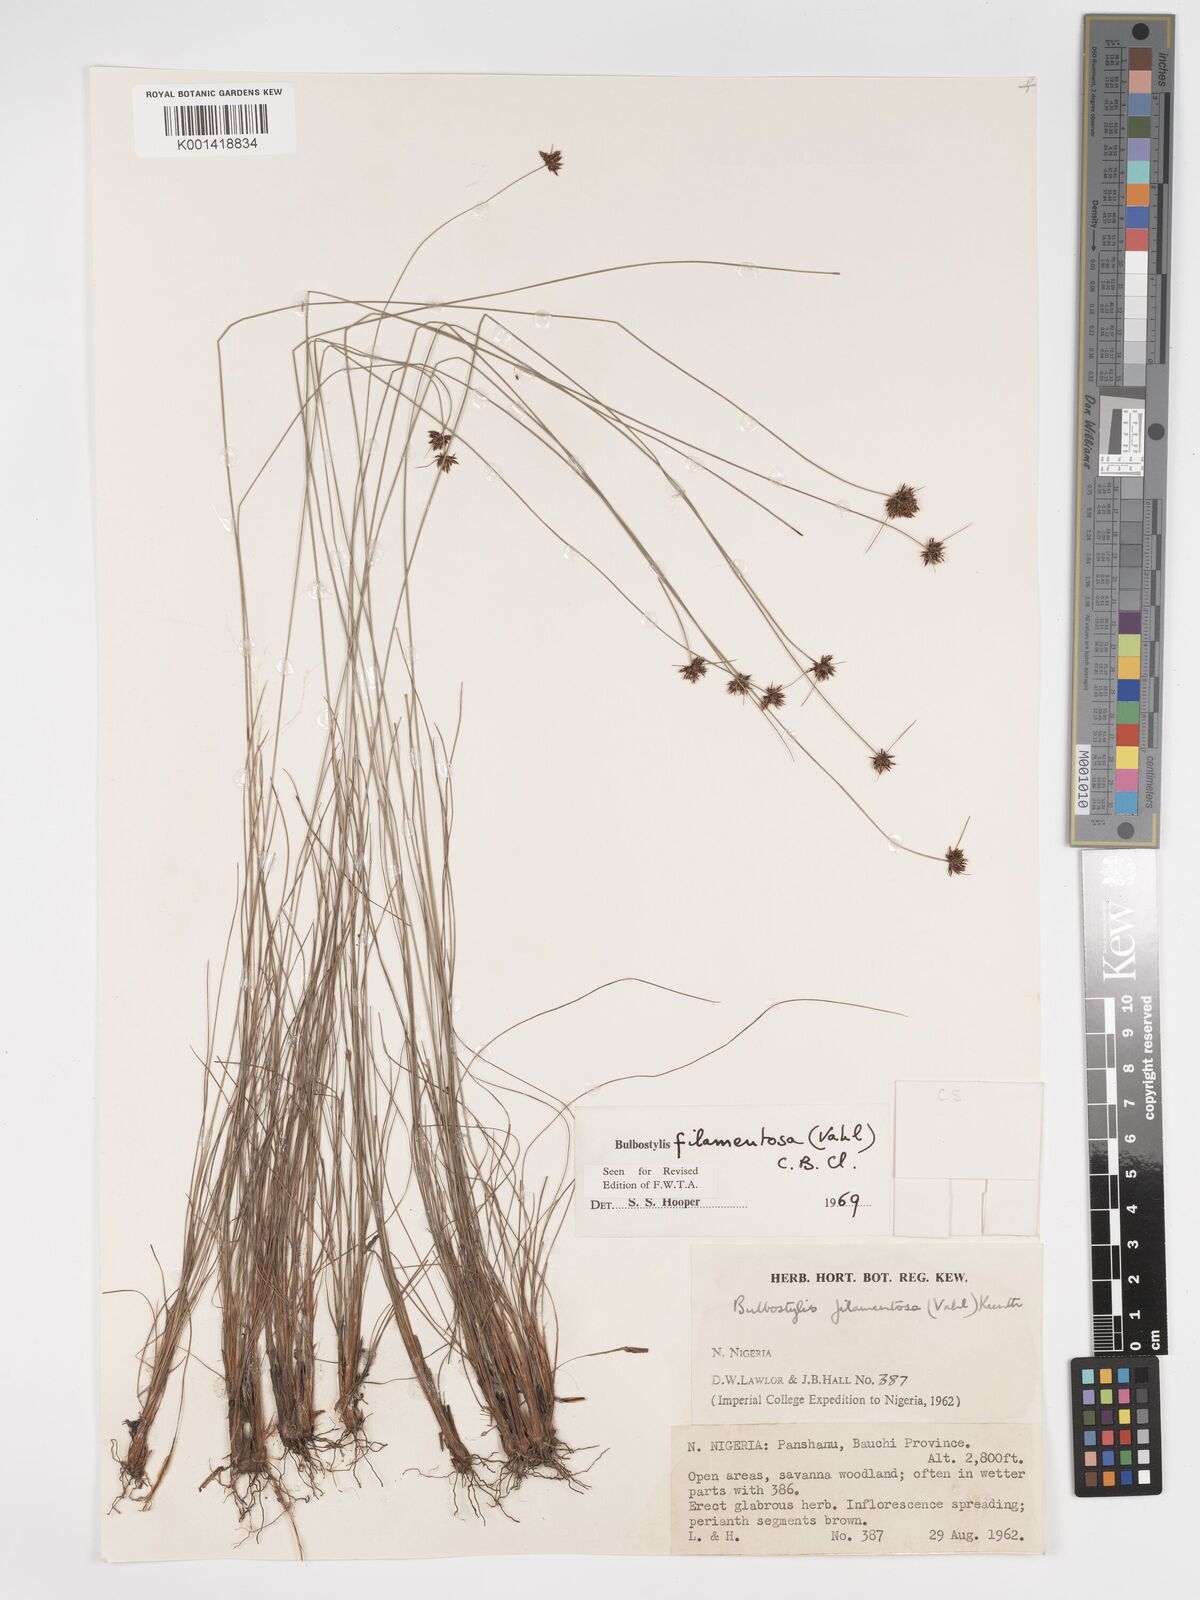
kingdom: Plantae
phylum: Tracheophyta
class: Liliopsida
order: Poales
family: Cyperaceae
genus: Bulbostylis
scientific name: Bulbostylis filamentosa
